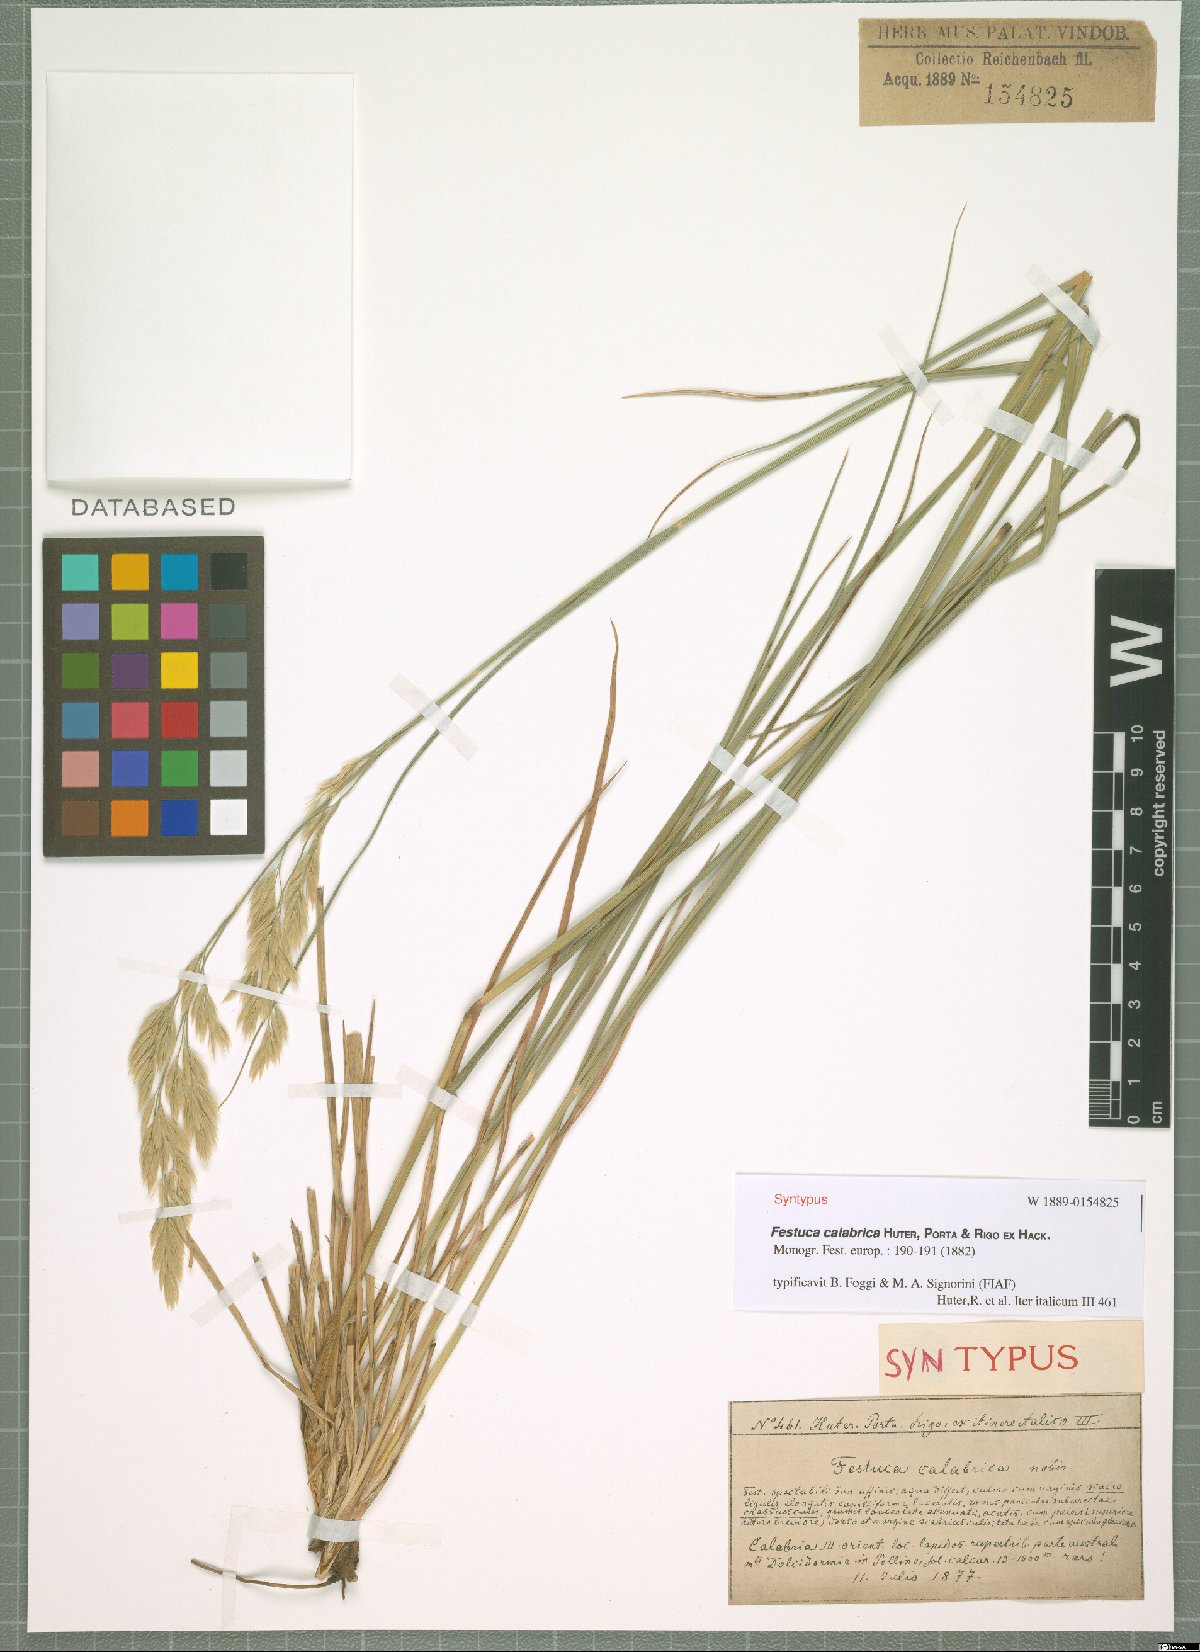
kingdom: Plantae
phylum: Tracheophyta
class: Liliopsida
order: Poales
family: Poaceae
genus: Festuca
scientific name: Festuca calabrica
